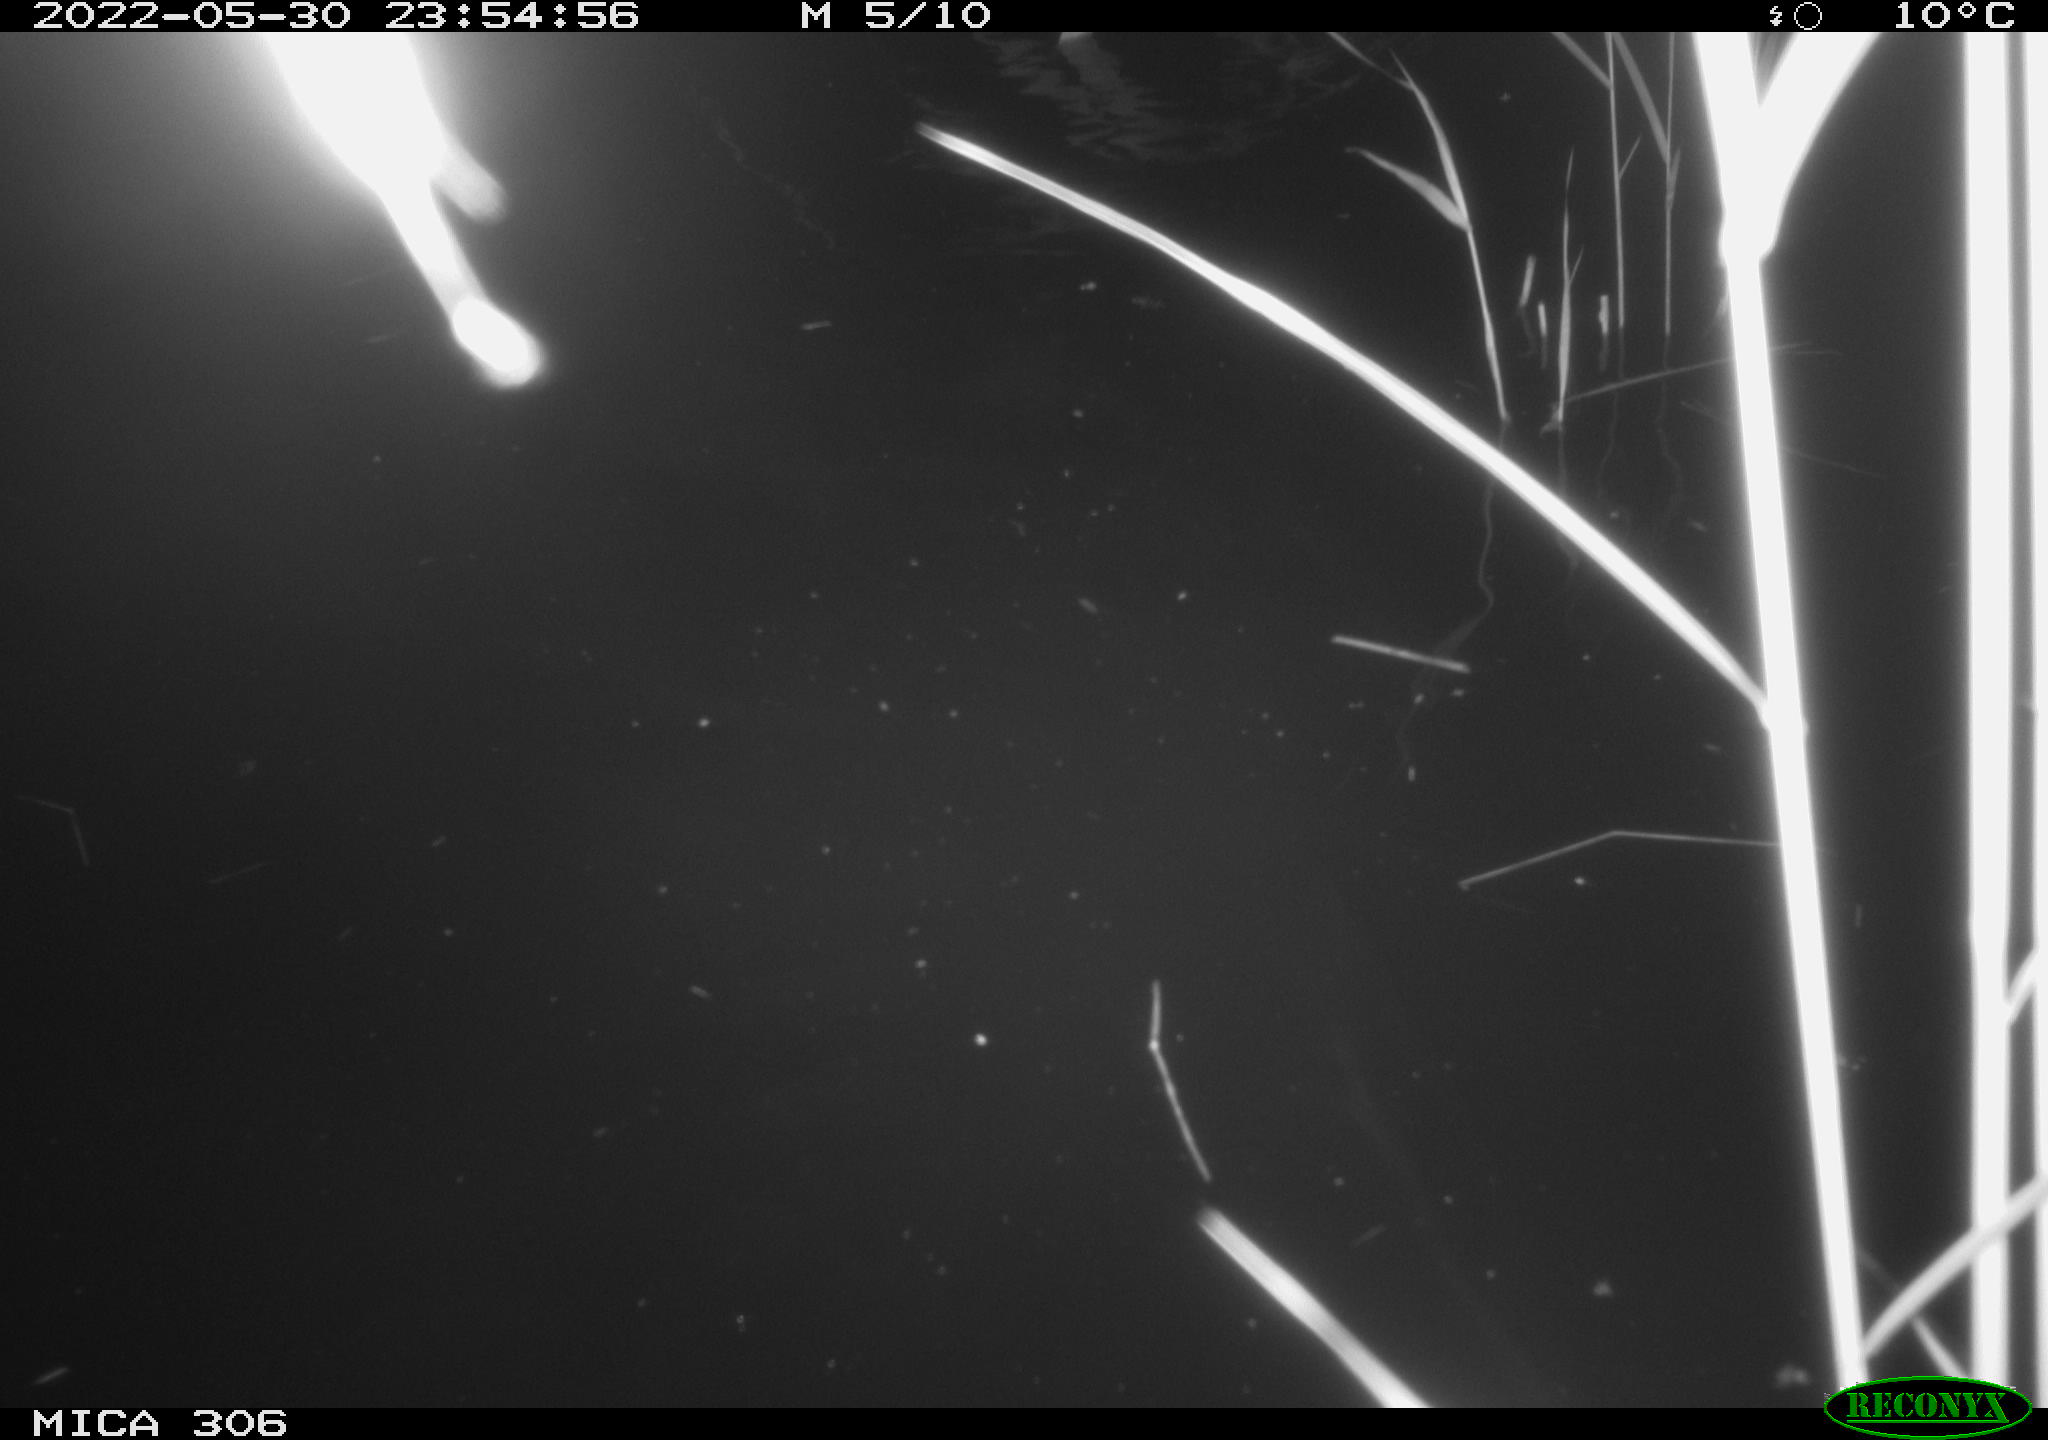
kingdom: Animalia
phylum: Chordata
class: Mammalia
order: Rodentia
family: Cricetidae
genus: Ondatra
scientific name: Ondatra zibethicus
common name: Muskrat
